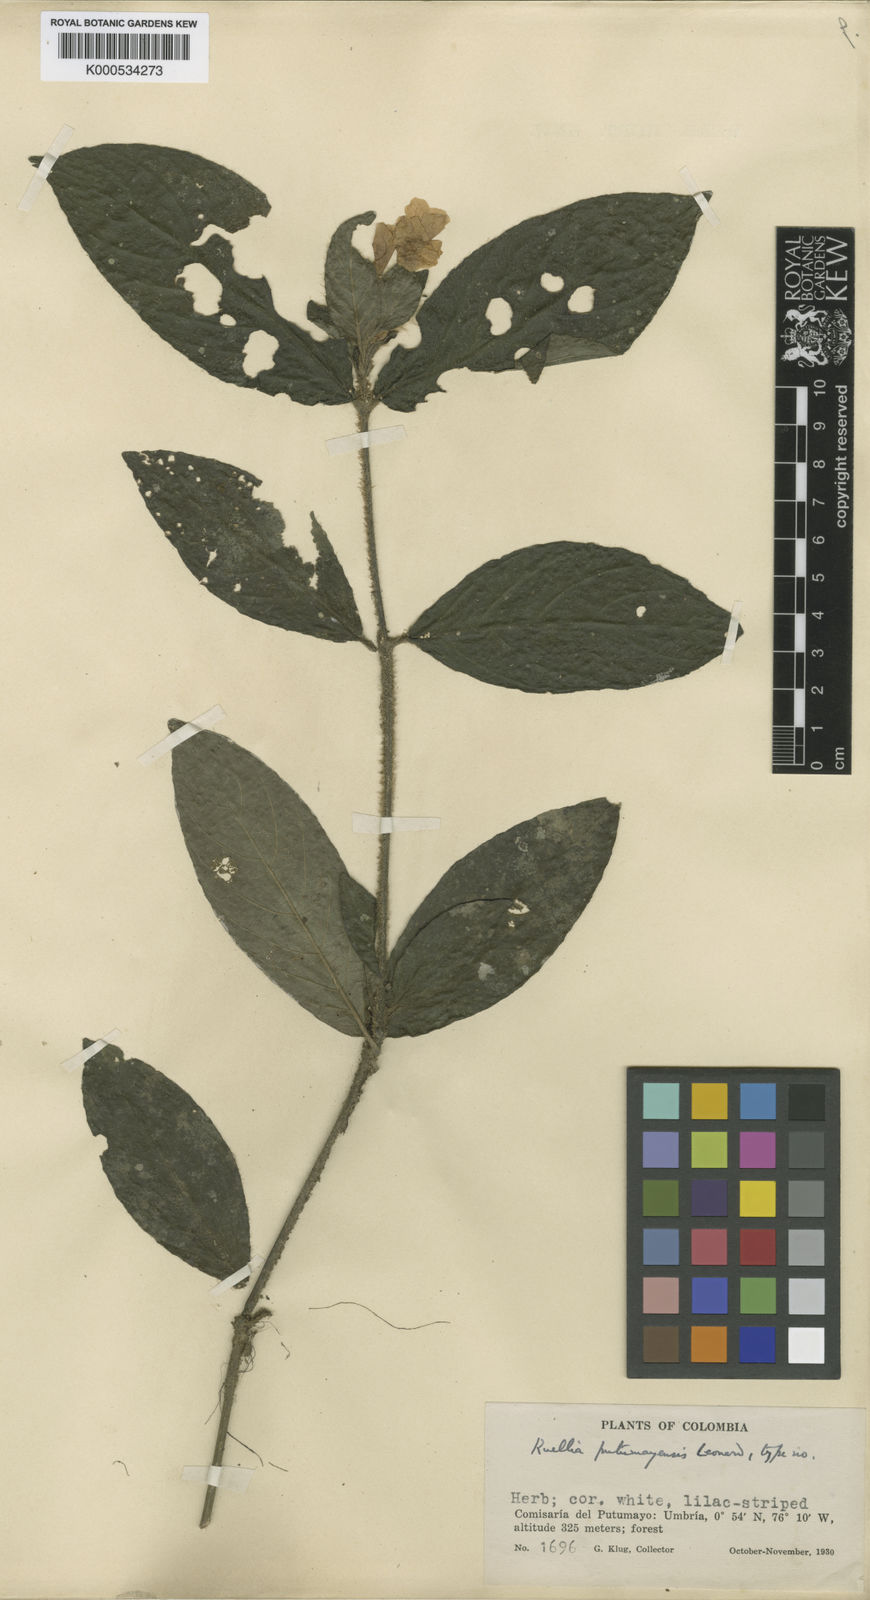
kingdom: Plantae
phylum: Tracheophyta
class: Magnoliopsida
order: Lamiales
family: Acanthaceae
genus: Ruellia
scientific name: Ruellia putumayensis
